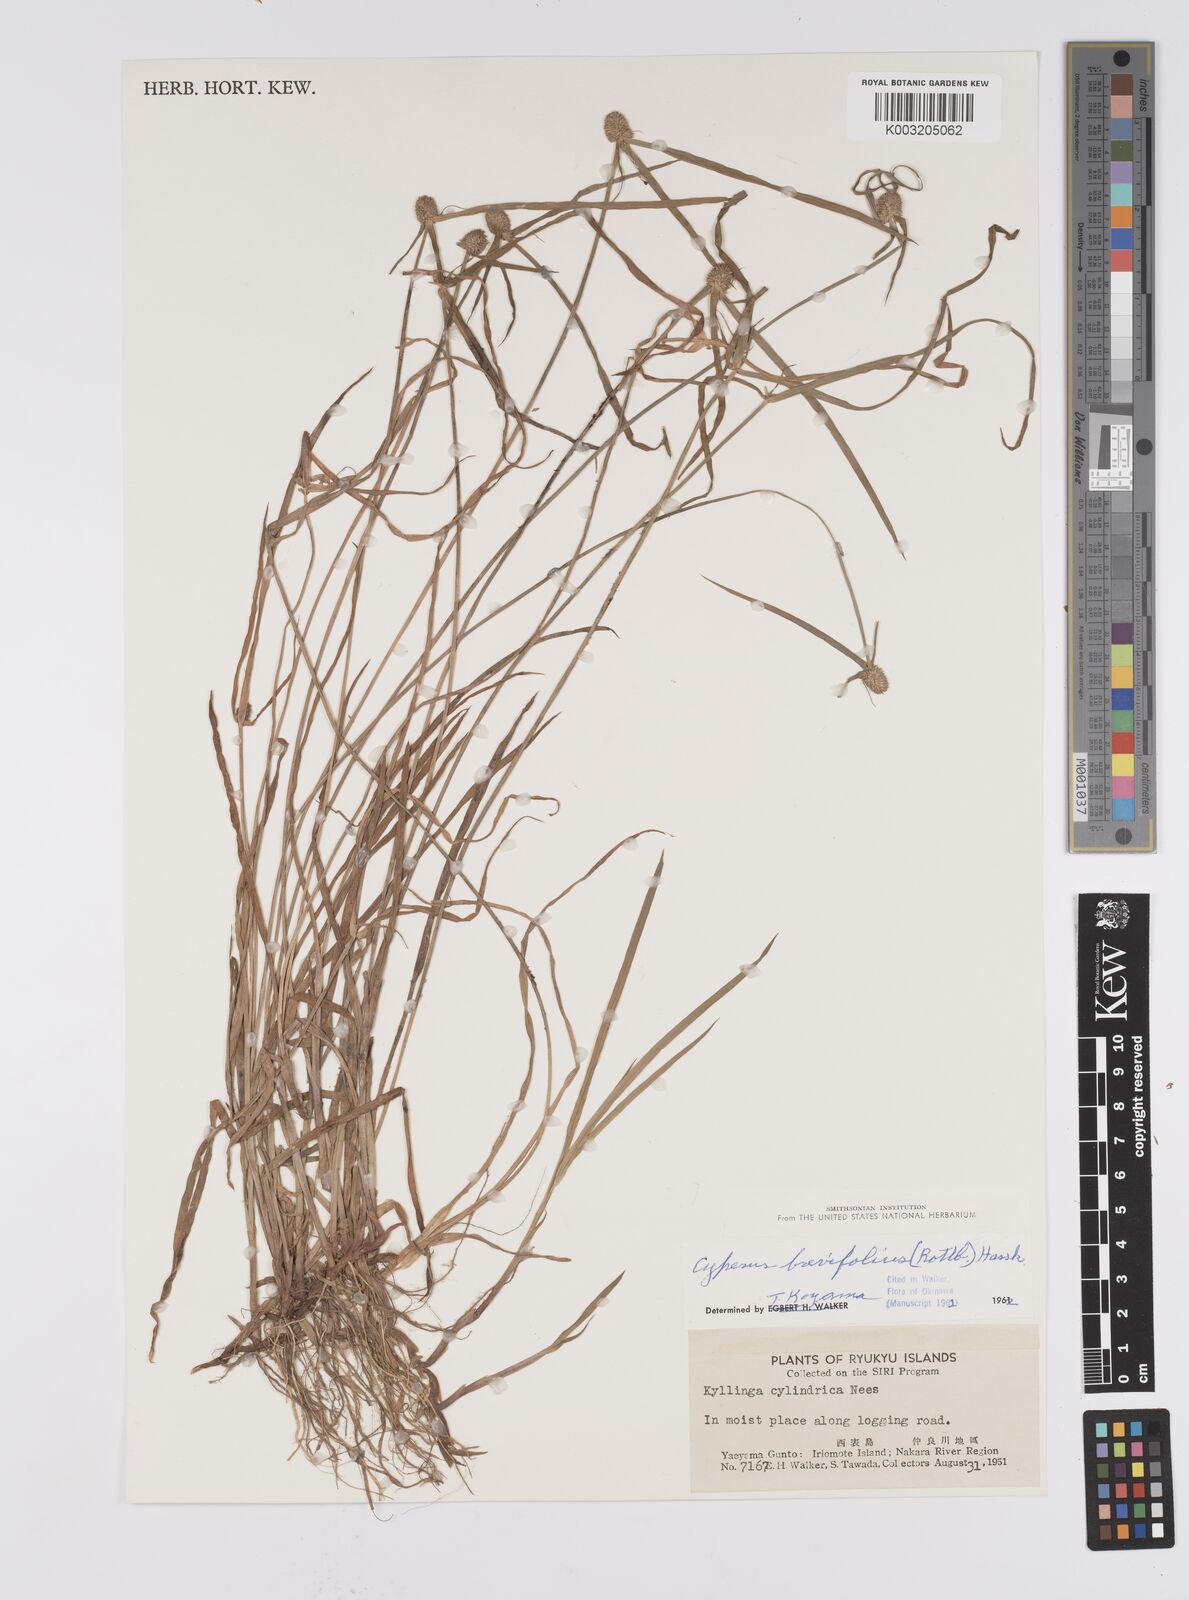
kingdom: Plantae
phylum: Tracheophyta
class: Liliopsida
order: Poales
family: Cyperaceae
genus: Cyperus
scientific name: Cyperus brevifolius
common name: Globe kyllinga
